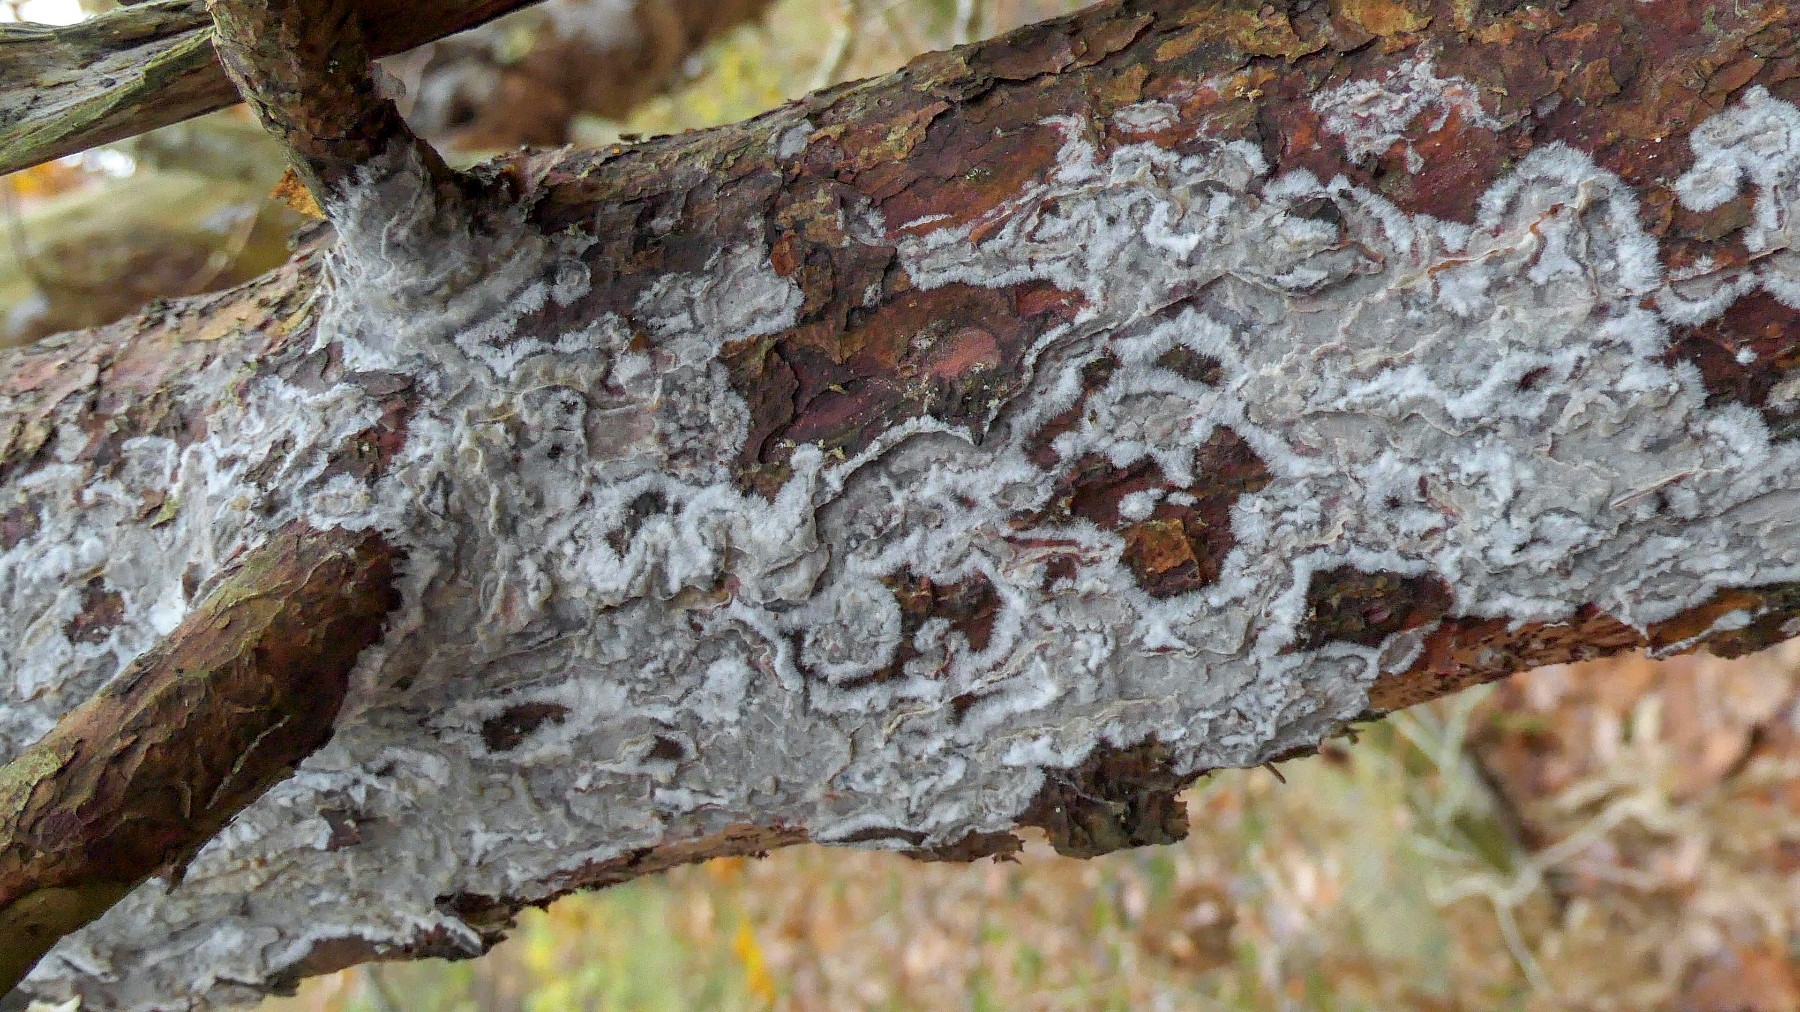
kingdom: Fungi
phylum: Basidiomycota
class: Agaricomycetes
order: Polyporales
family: Phanerochaetaceae
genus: Phlebiopsis
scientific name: Phlebiopsis gigantea
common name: kæmpebarksvamp
